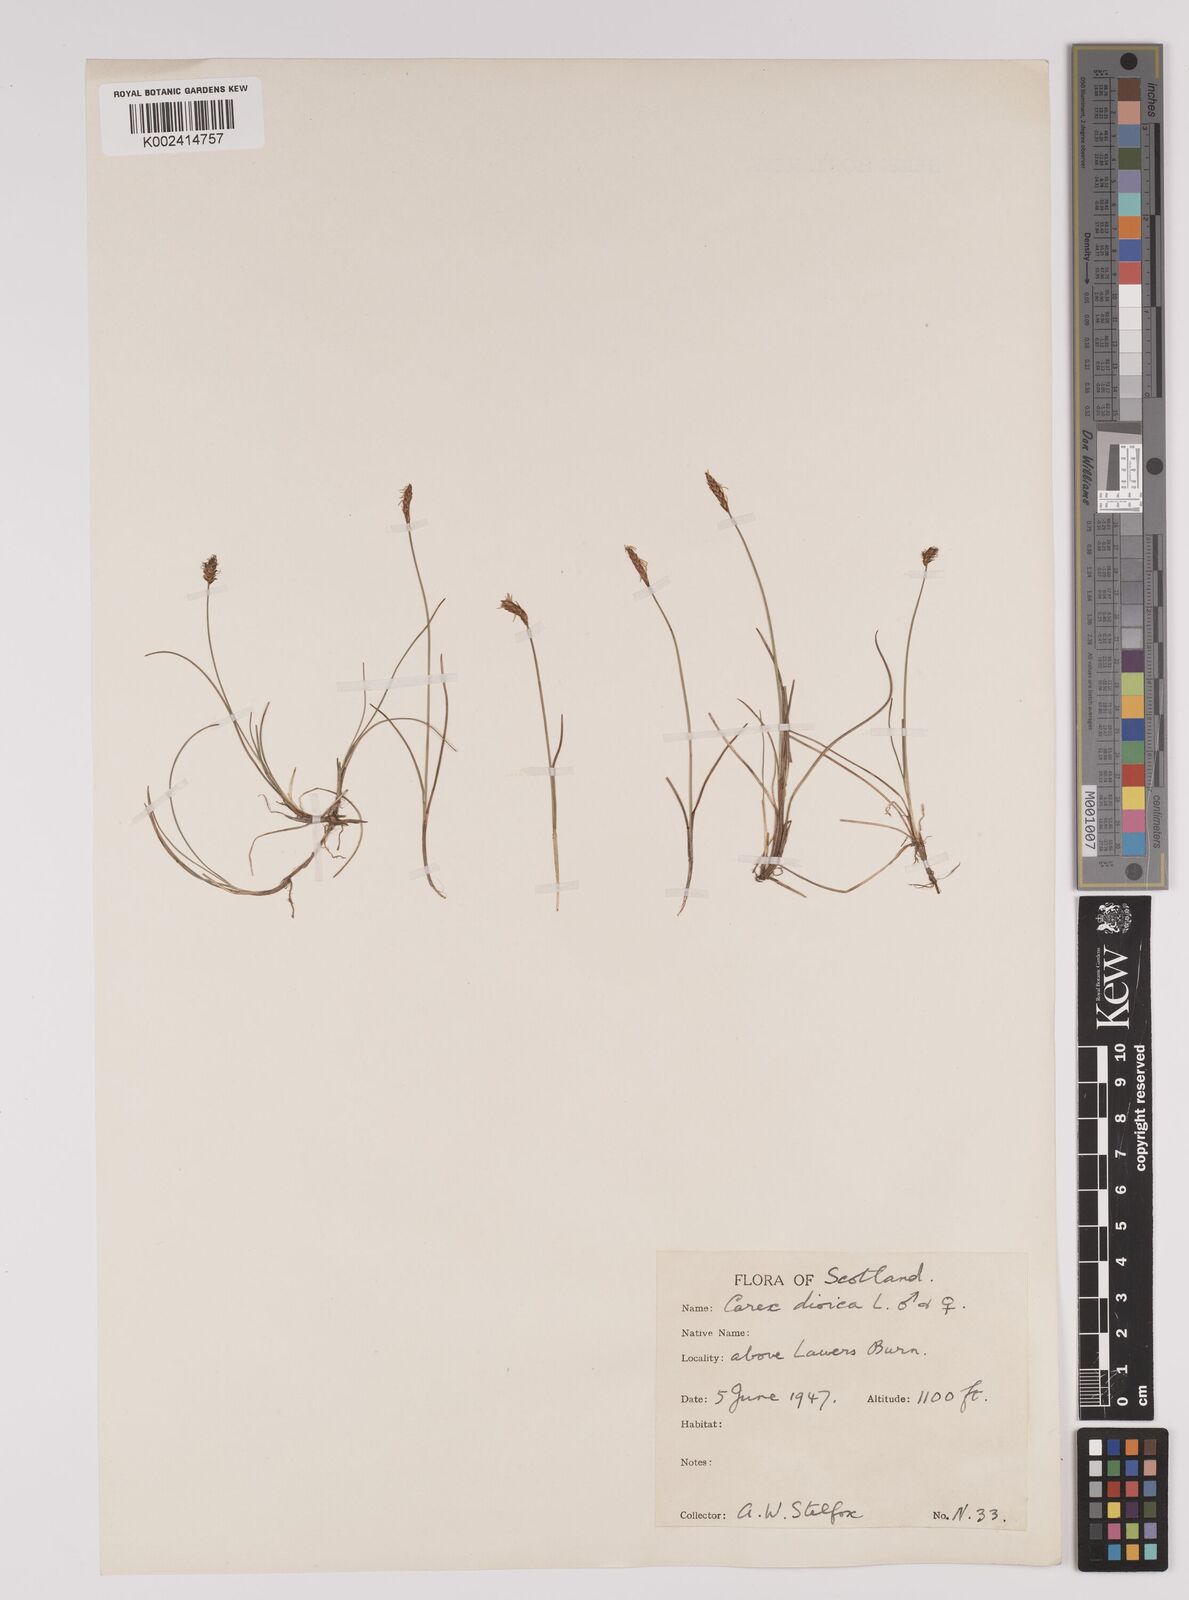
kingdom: Plantae
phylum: Tracheophyta
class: Liliopsida
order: Poales
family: Cyperaceae
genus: Carex
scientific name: Carex dioica
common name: Dioecious sedge
